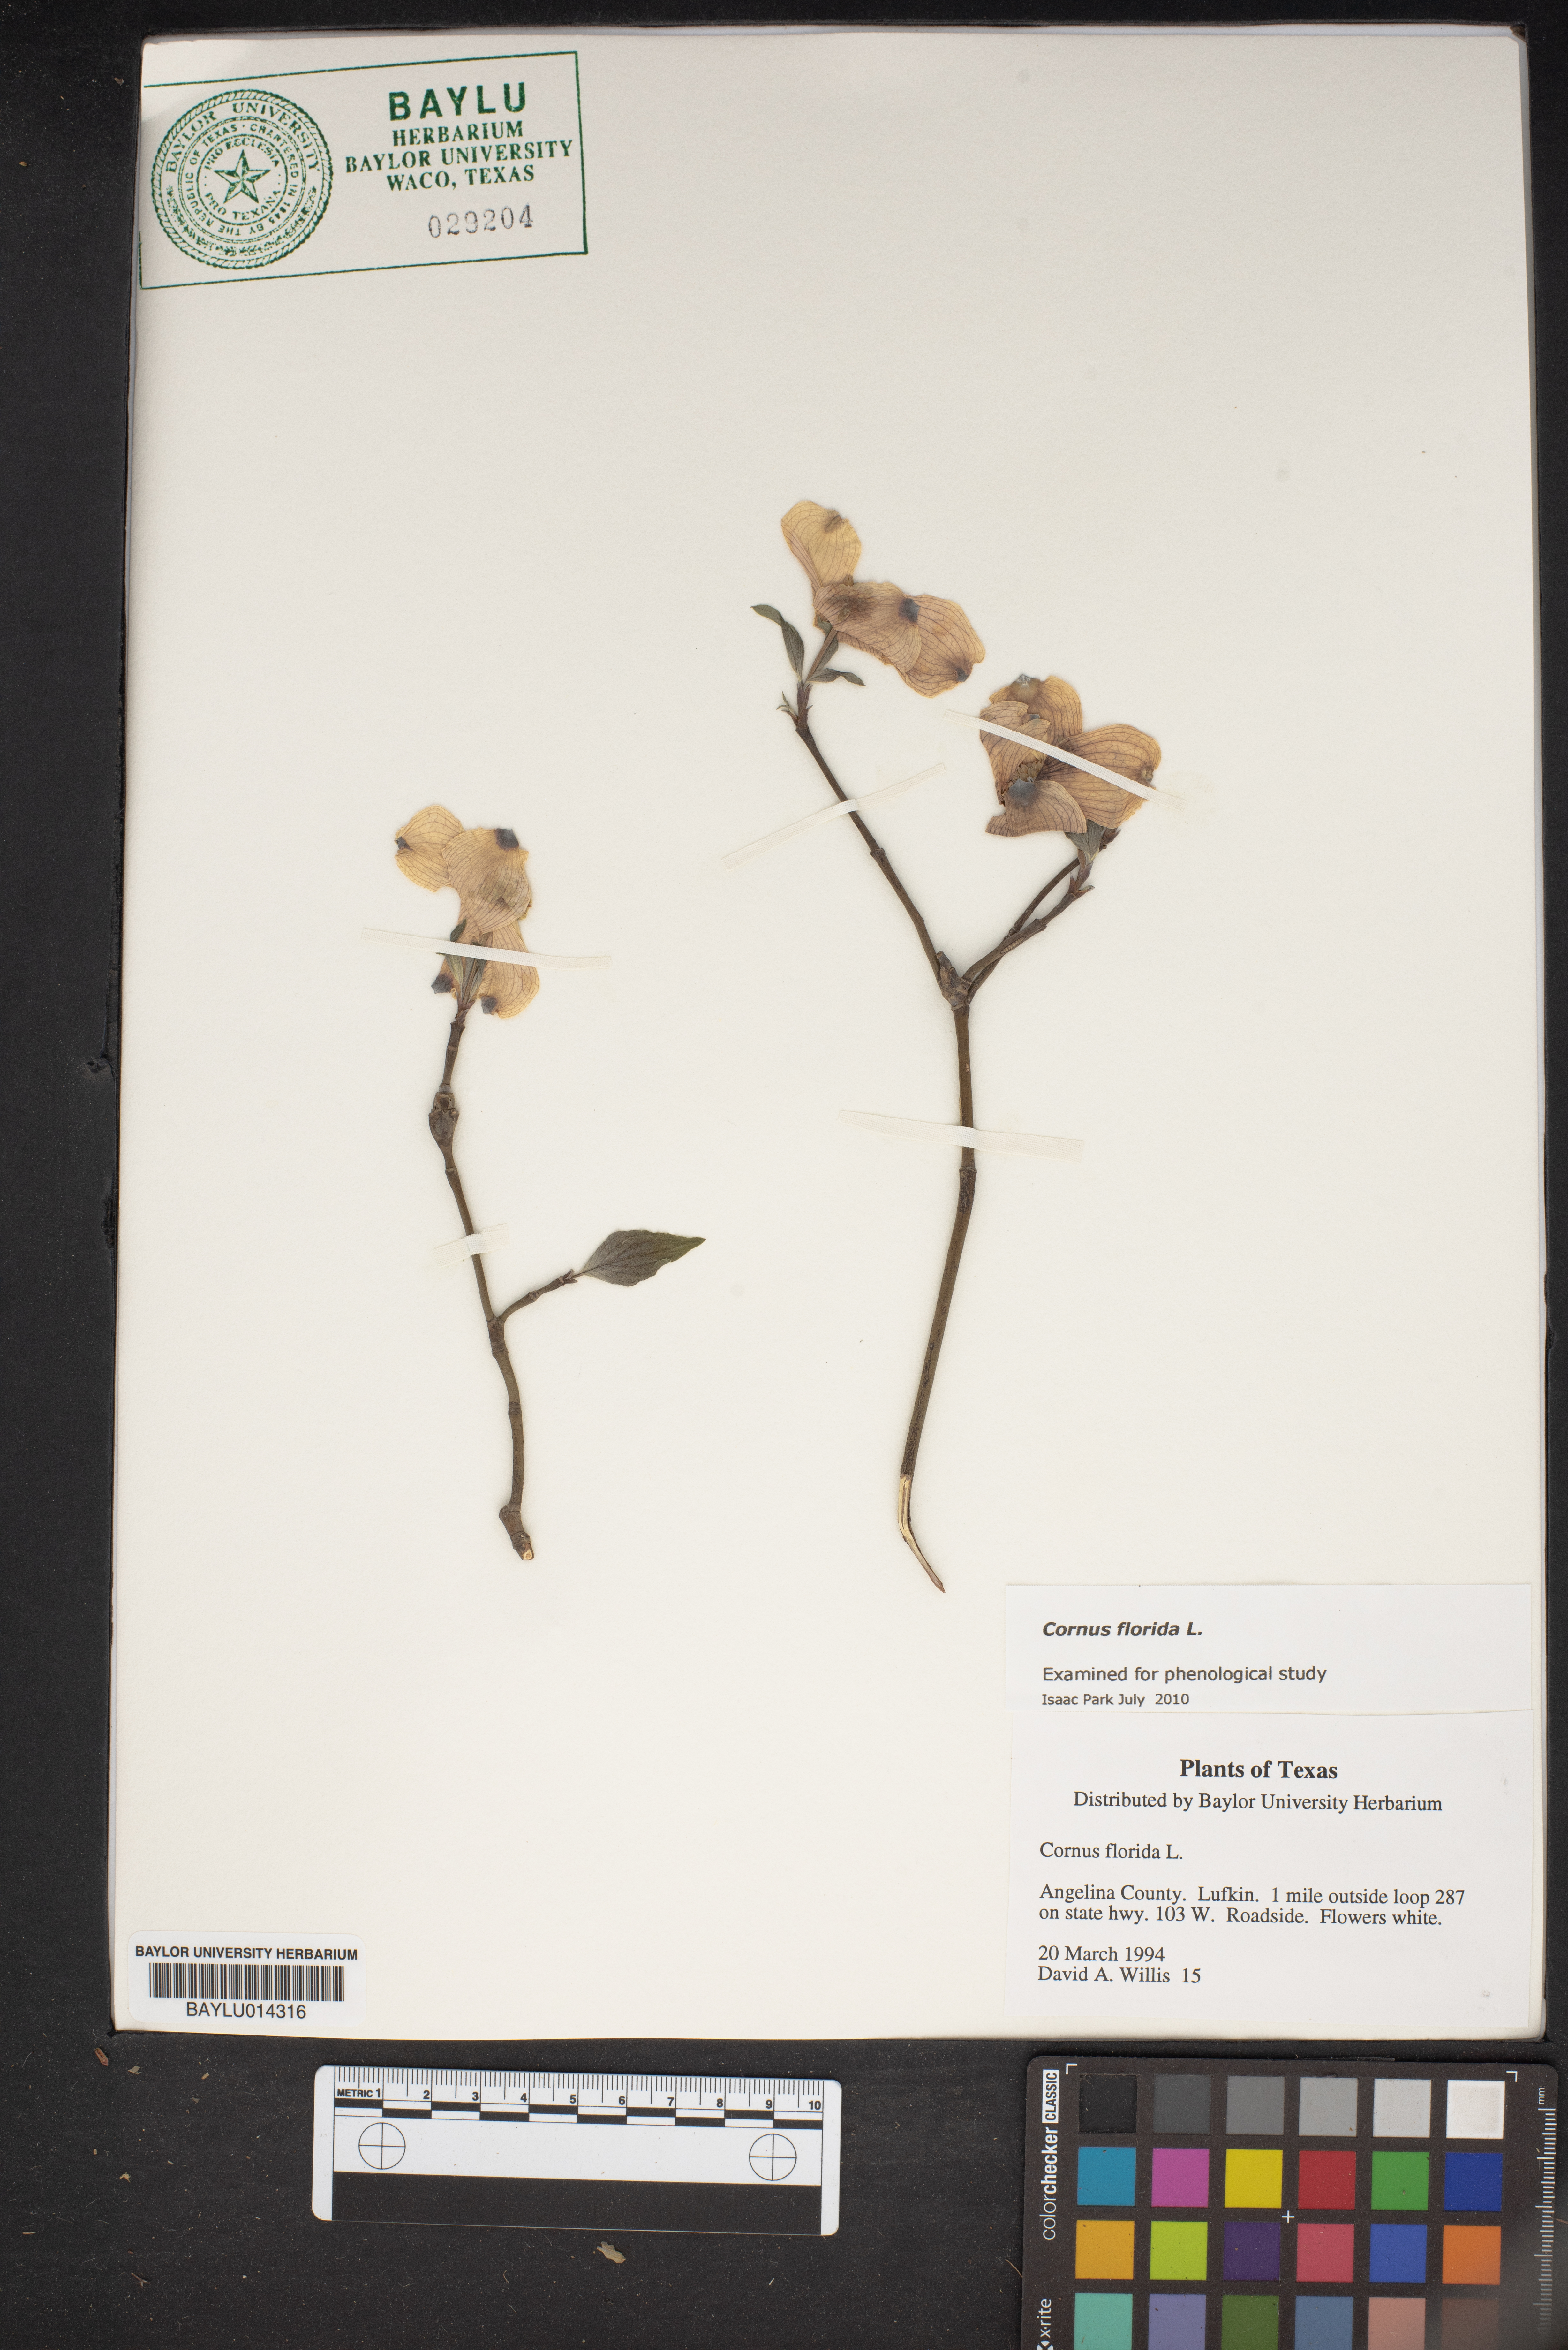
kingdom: Plantae
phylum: Tracheophyta
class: Magnoliopsida
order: Cornales
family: Cornaceae
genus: Cornus
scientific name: Cornus florida
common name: Flowering dogwood
